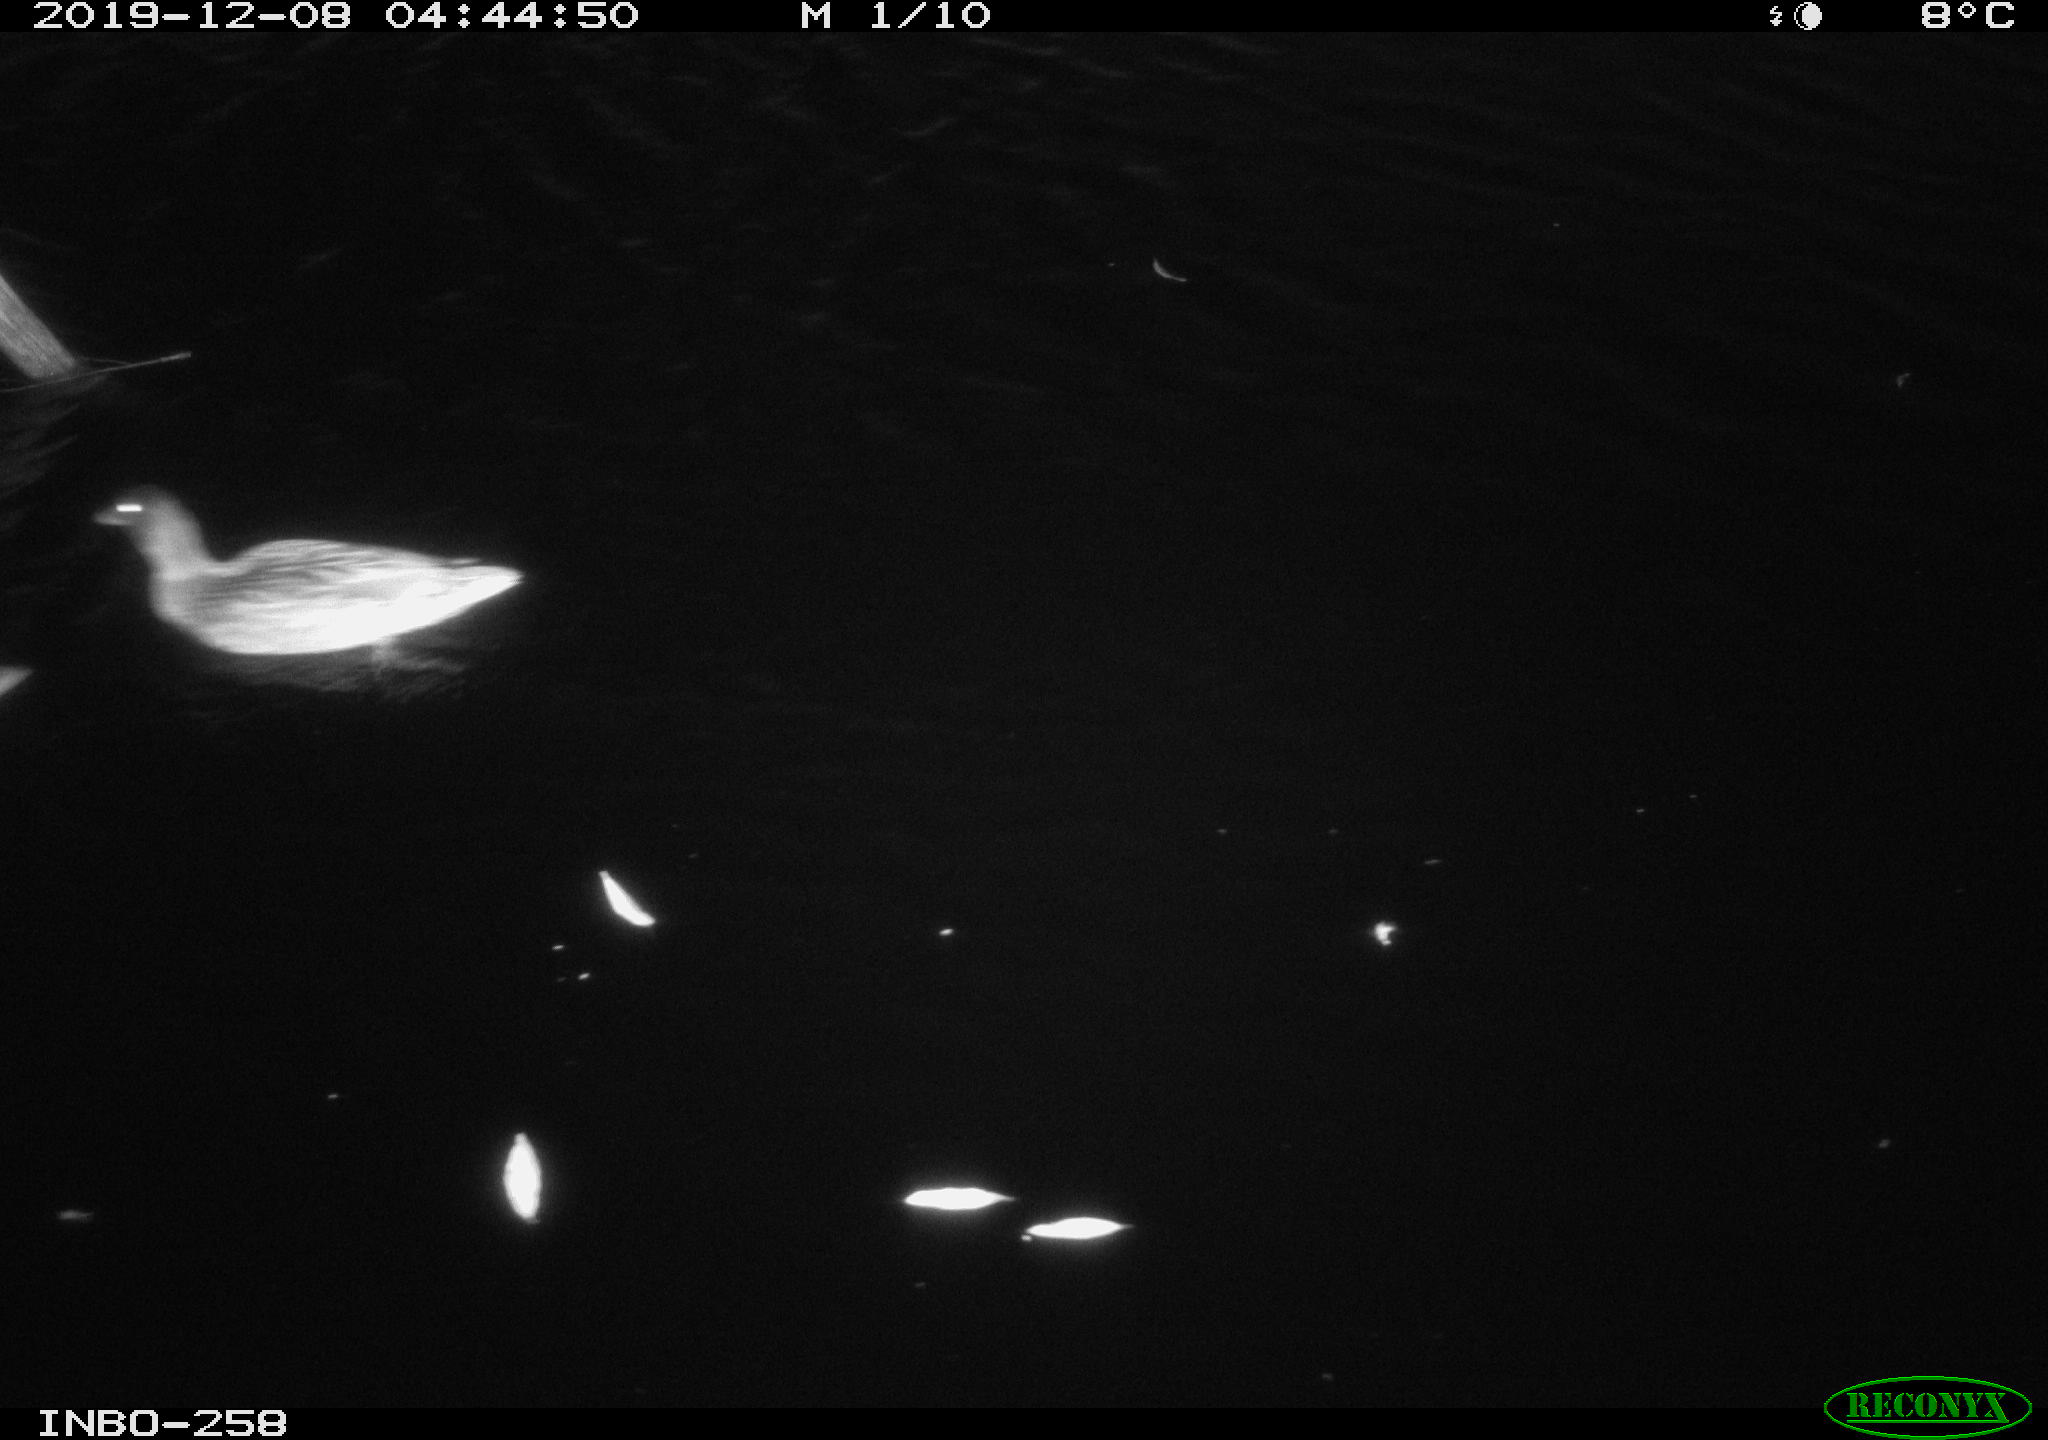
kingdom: Animalia
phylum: Chordata
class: Aves
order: Anseriformes
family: Anatidae
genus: Anas
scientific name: Anas platyrhynchos
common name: Mallard
